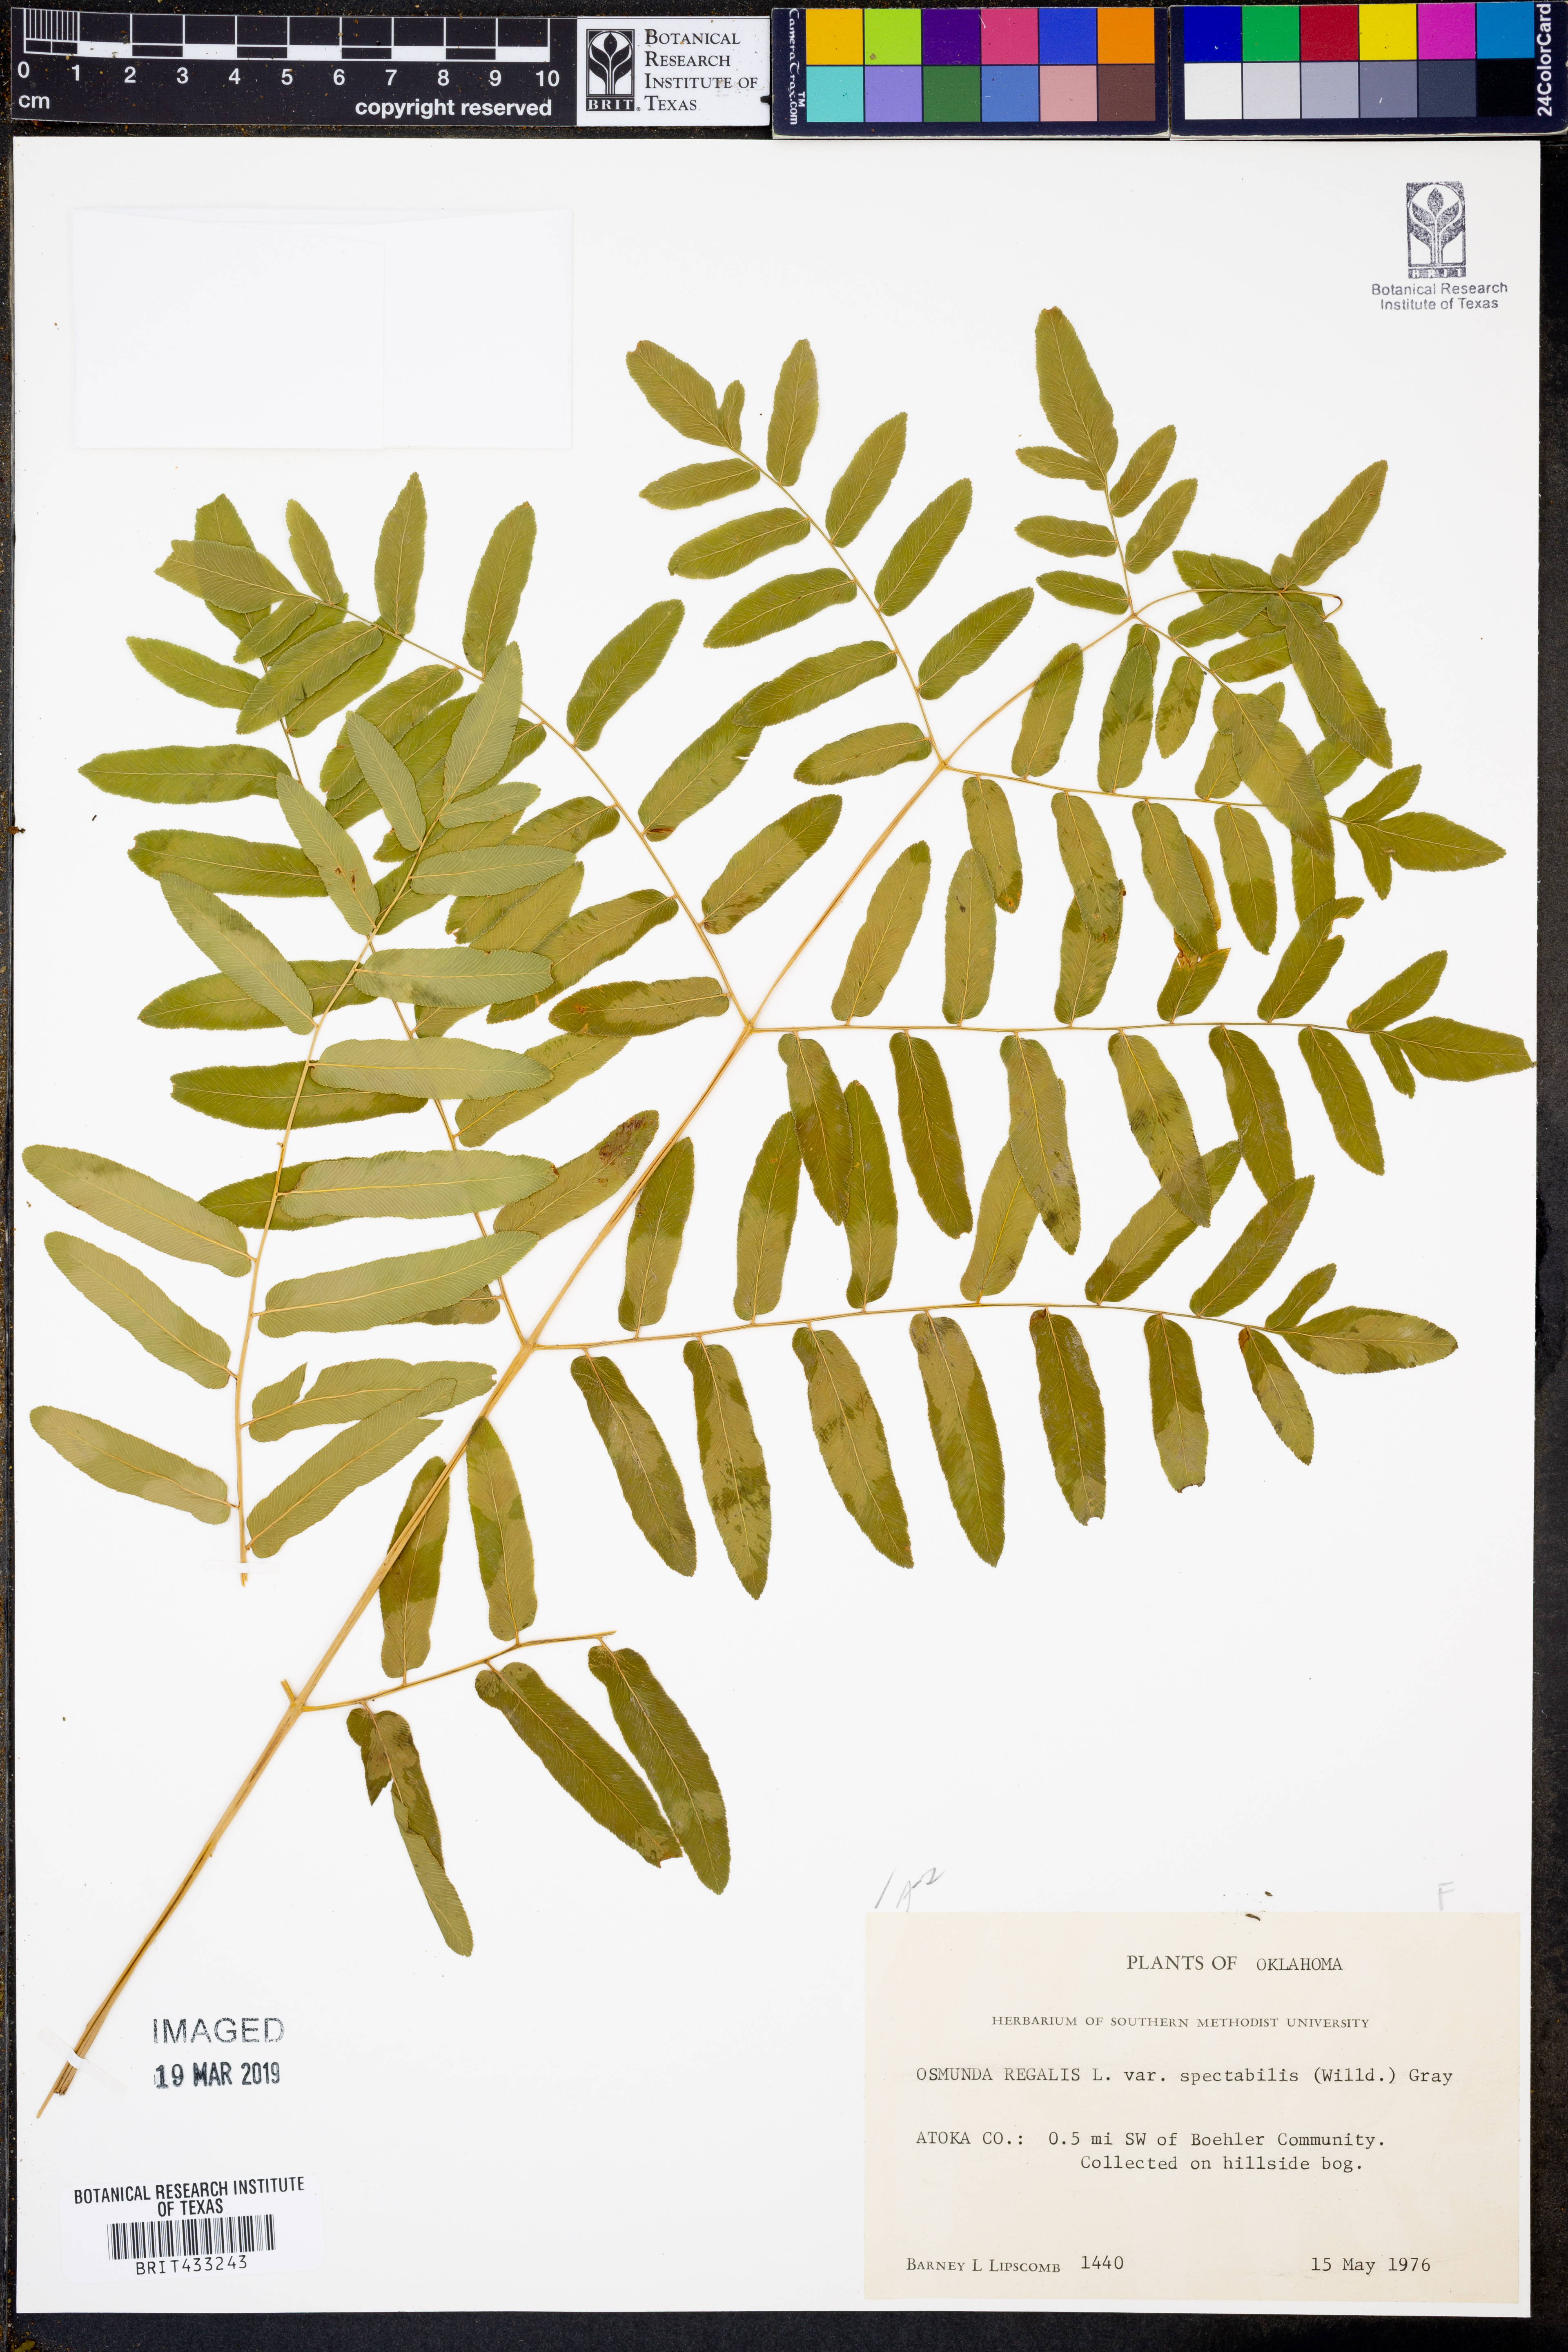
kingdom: Plantae
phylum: Tracheophyta
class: Polypodiopsida
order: Osmundales
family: Osmundaceae
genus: Osmunda
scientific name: Osmunda spectabilis
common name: American royal fern
